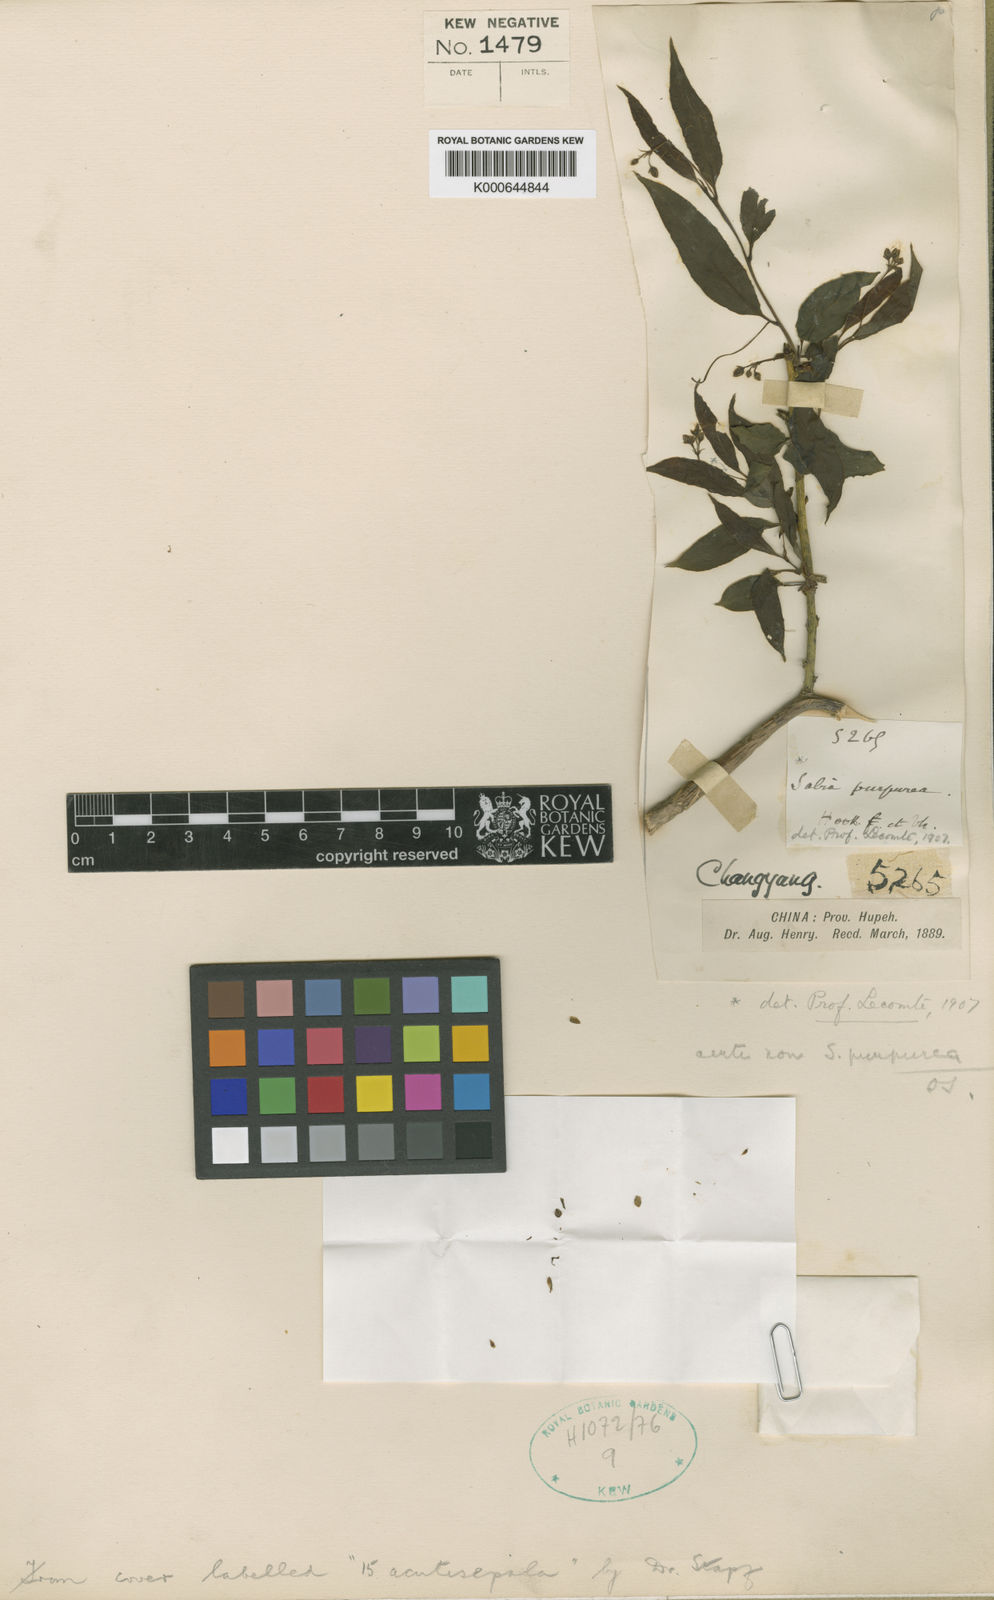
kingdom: Plantae
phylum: Tracheophyta
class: Magnoliopsida
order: Proteales
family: Sabiaceae
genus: Sabia
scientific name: Sabia campanulata
